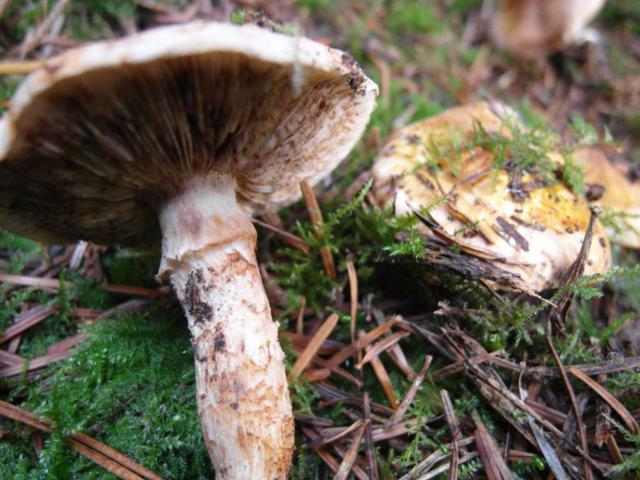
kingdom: Fungi
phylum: Basidiomycota
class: Agaricomycetes
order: Agaricales
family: Tricholomataceae
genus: Tricholoma
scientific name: Tricholoma focale
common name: halsbånd-ridderhat
